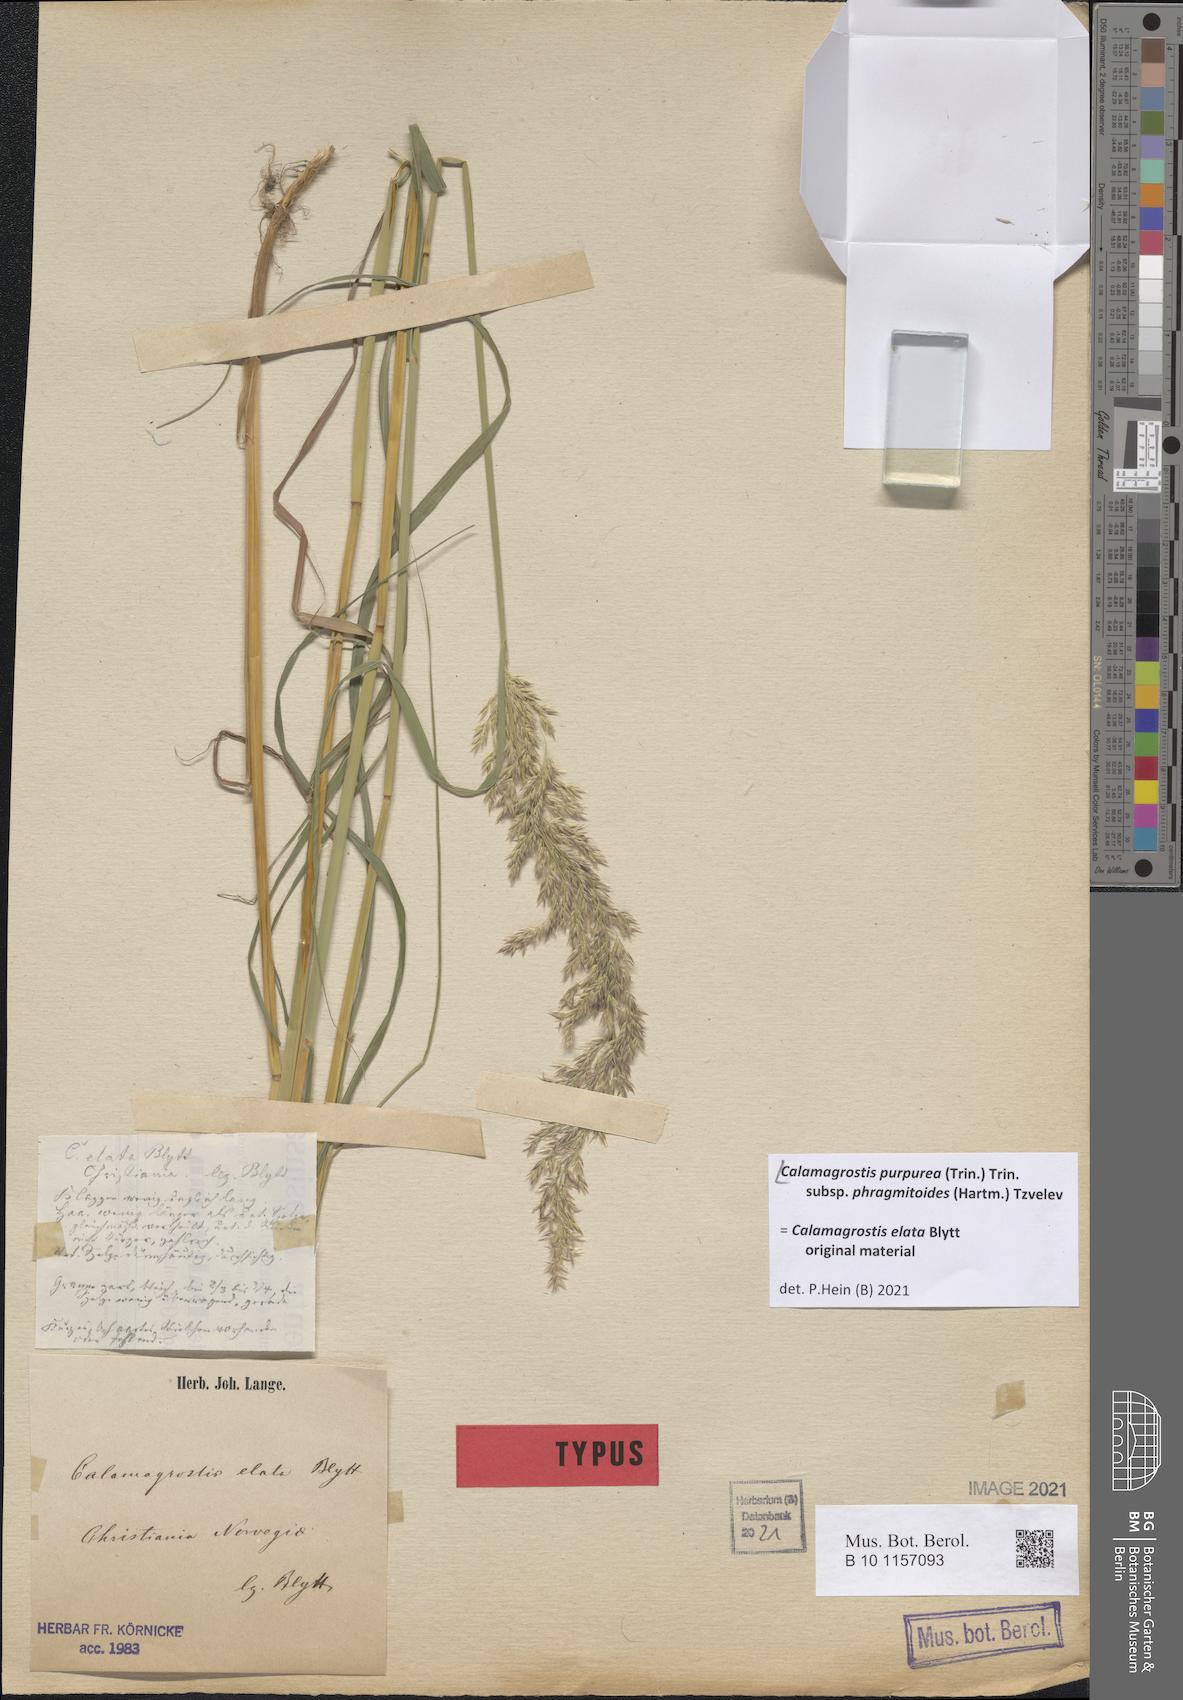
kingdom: Plantae
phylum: Tracheophyta
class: Liliopsida
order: Poales
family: Poaceae
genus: Calamagrostis
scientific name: Calamagrostis purpurea
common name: Scandinavian small-reed
